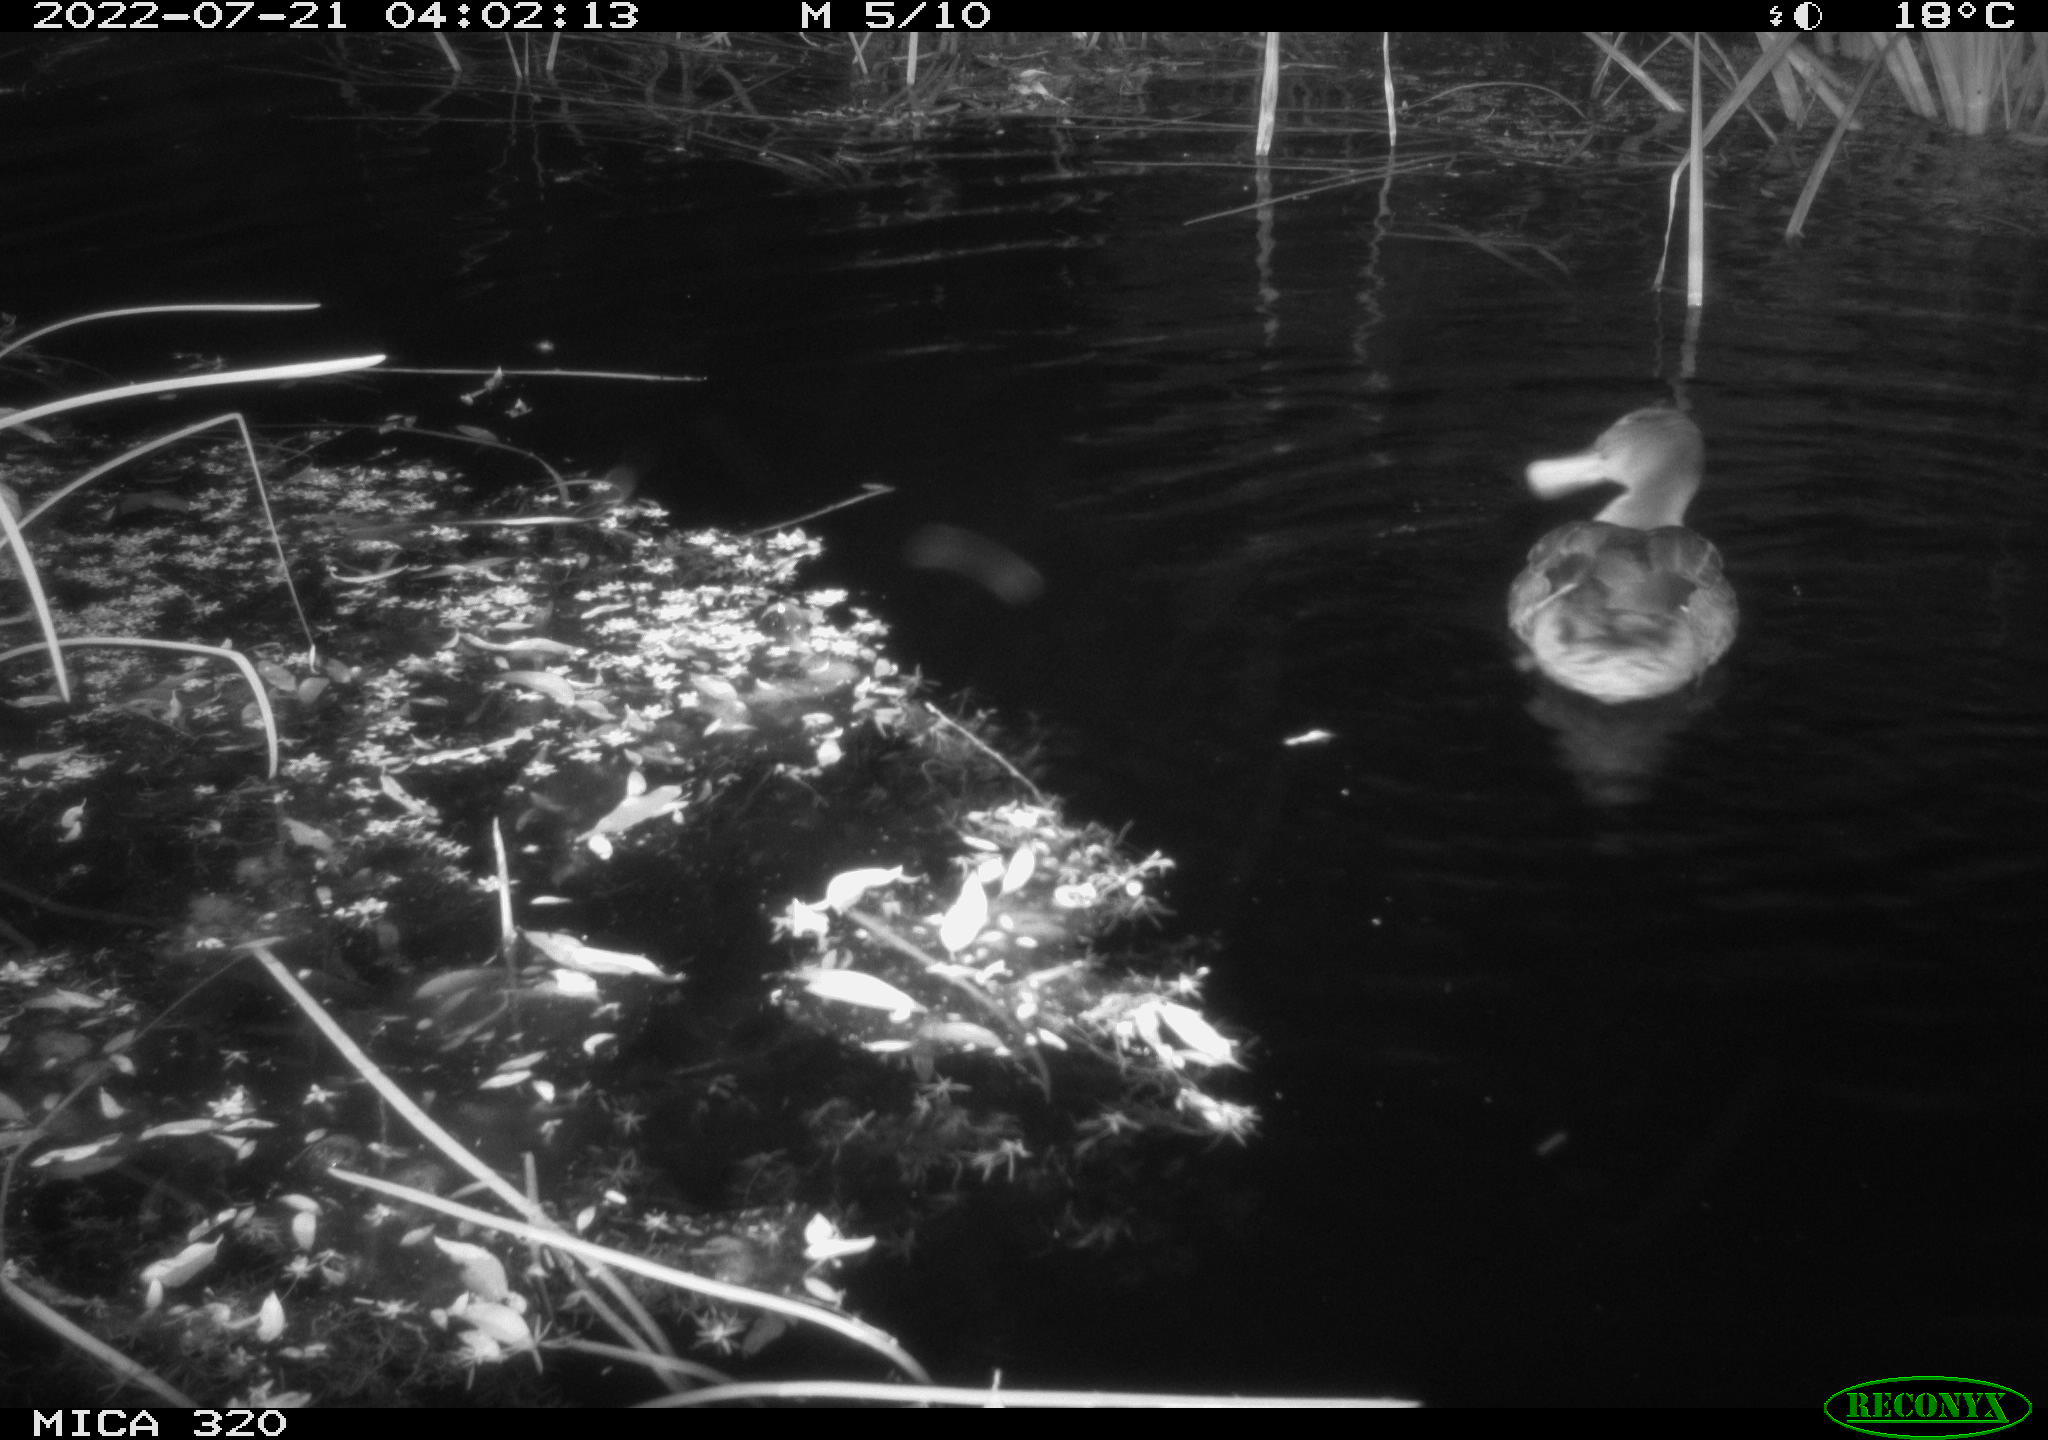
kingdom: Animalia
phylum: Chordata
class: Aves
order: Anseriformes
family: Anatidae
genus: Anas
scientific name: Anas platyrhynchos
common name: Mallard
